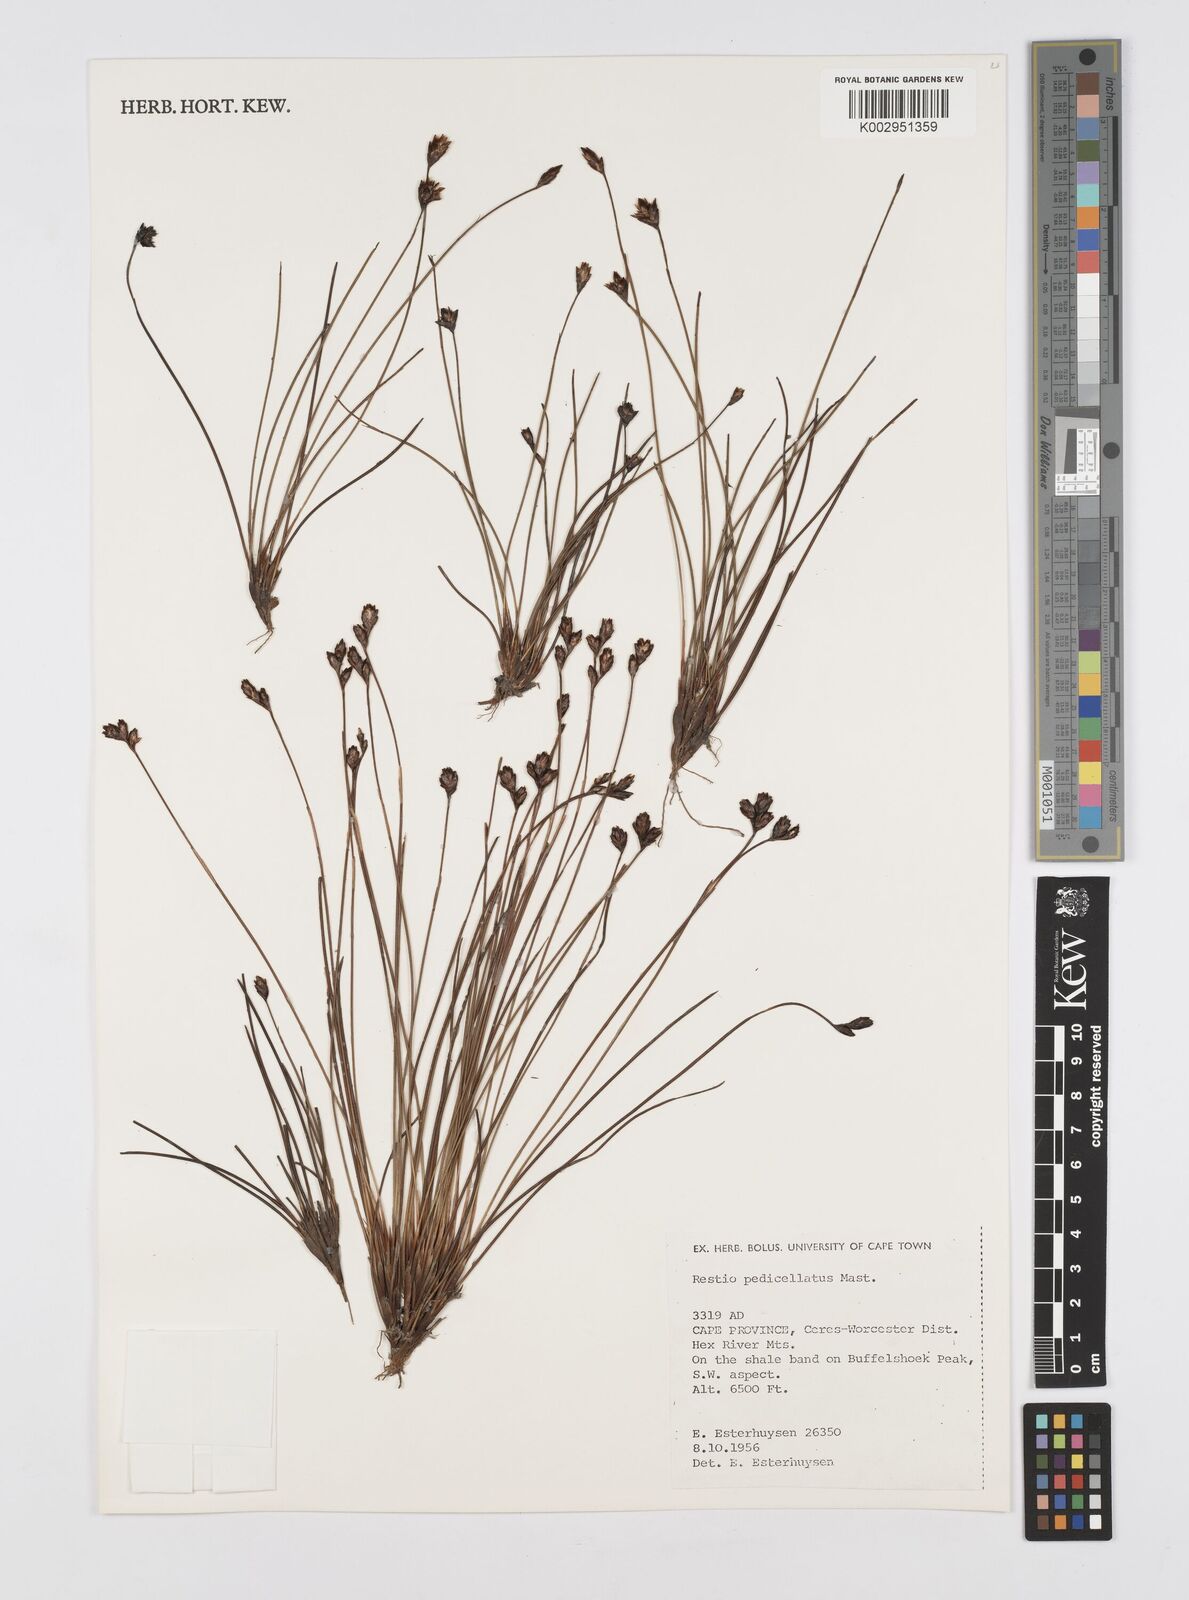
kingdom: Plantae
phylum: Tracheophyta
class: Liliopsida
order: Poales
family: Restionaceae
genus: Restio
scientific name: Restio pedicellatus
